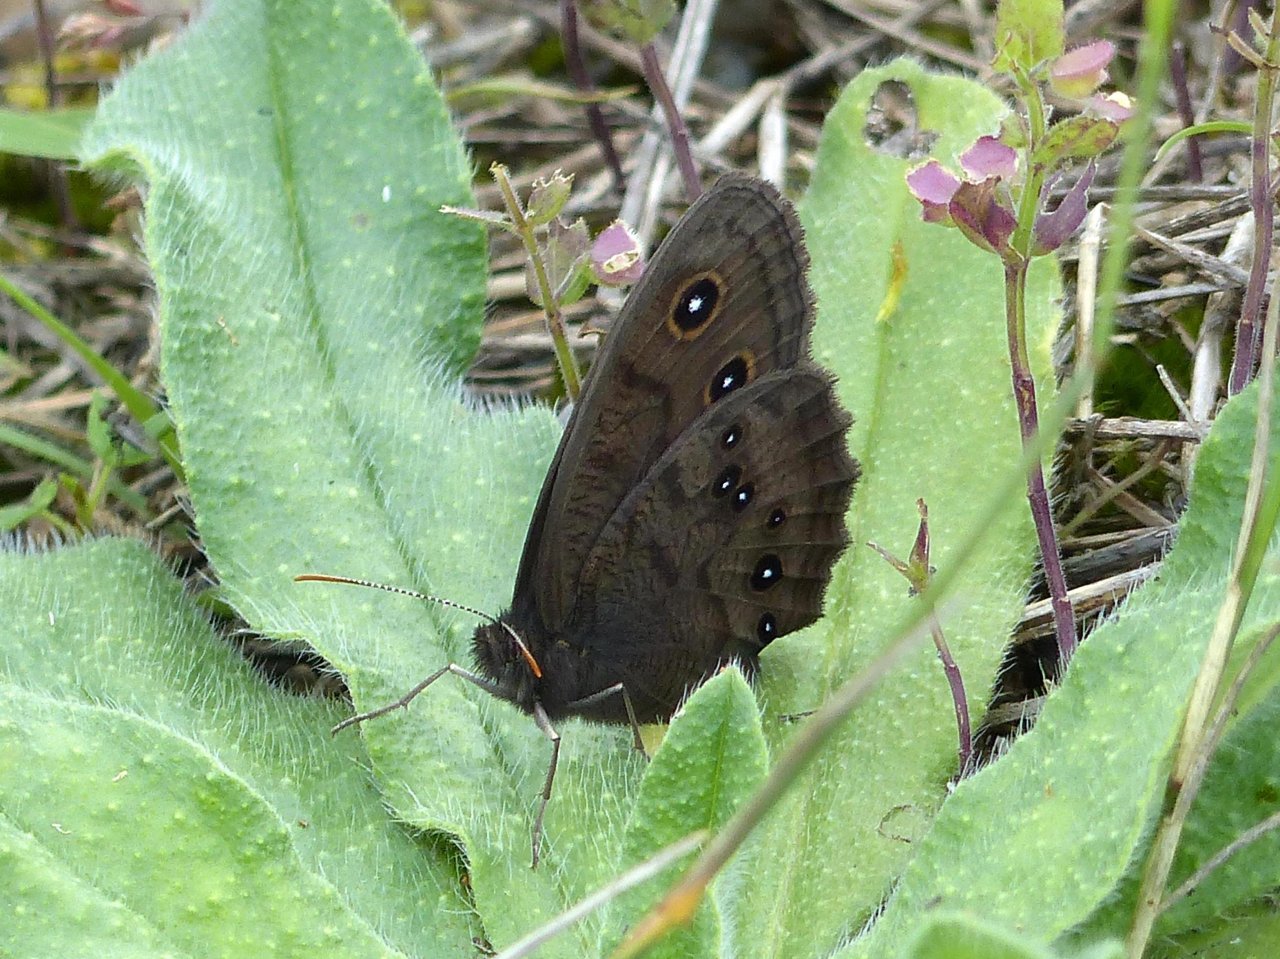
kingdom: Animalia
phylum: Arthropoda
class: Insecta
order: Lepidoptera
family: Nymphalidae
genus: Cercyonis
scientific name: Cercyonis pegala
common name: Common Wood-Nymph
